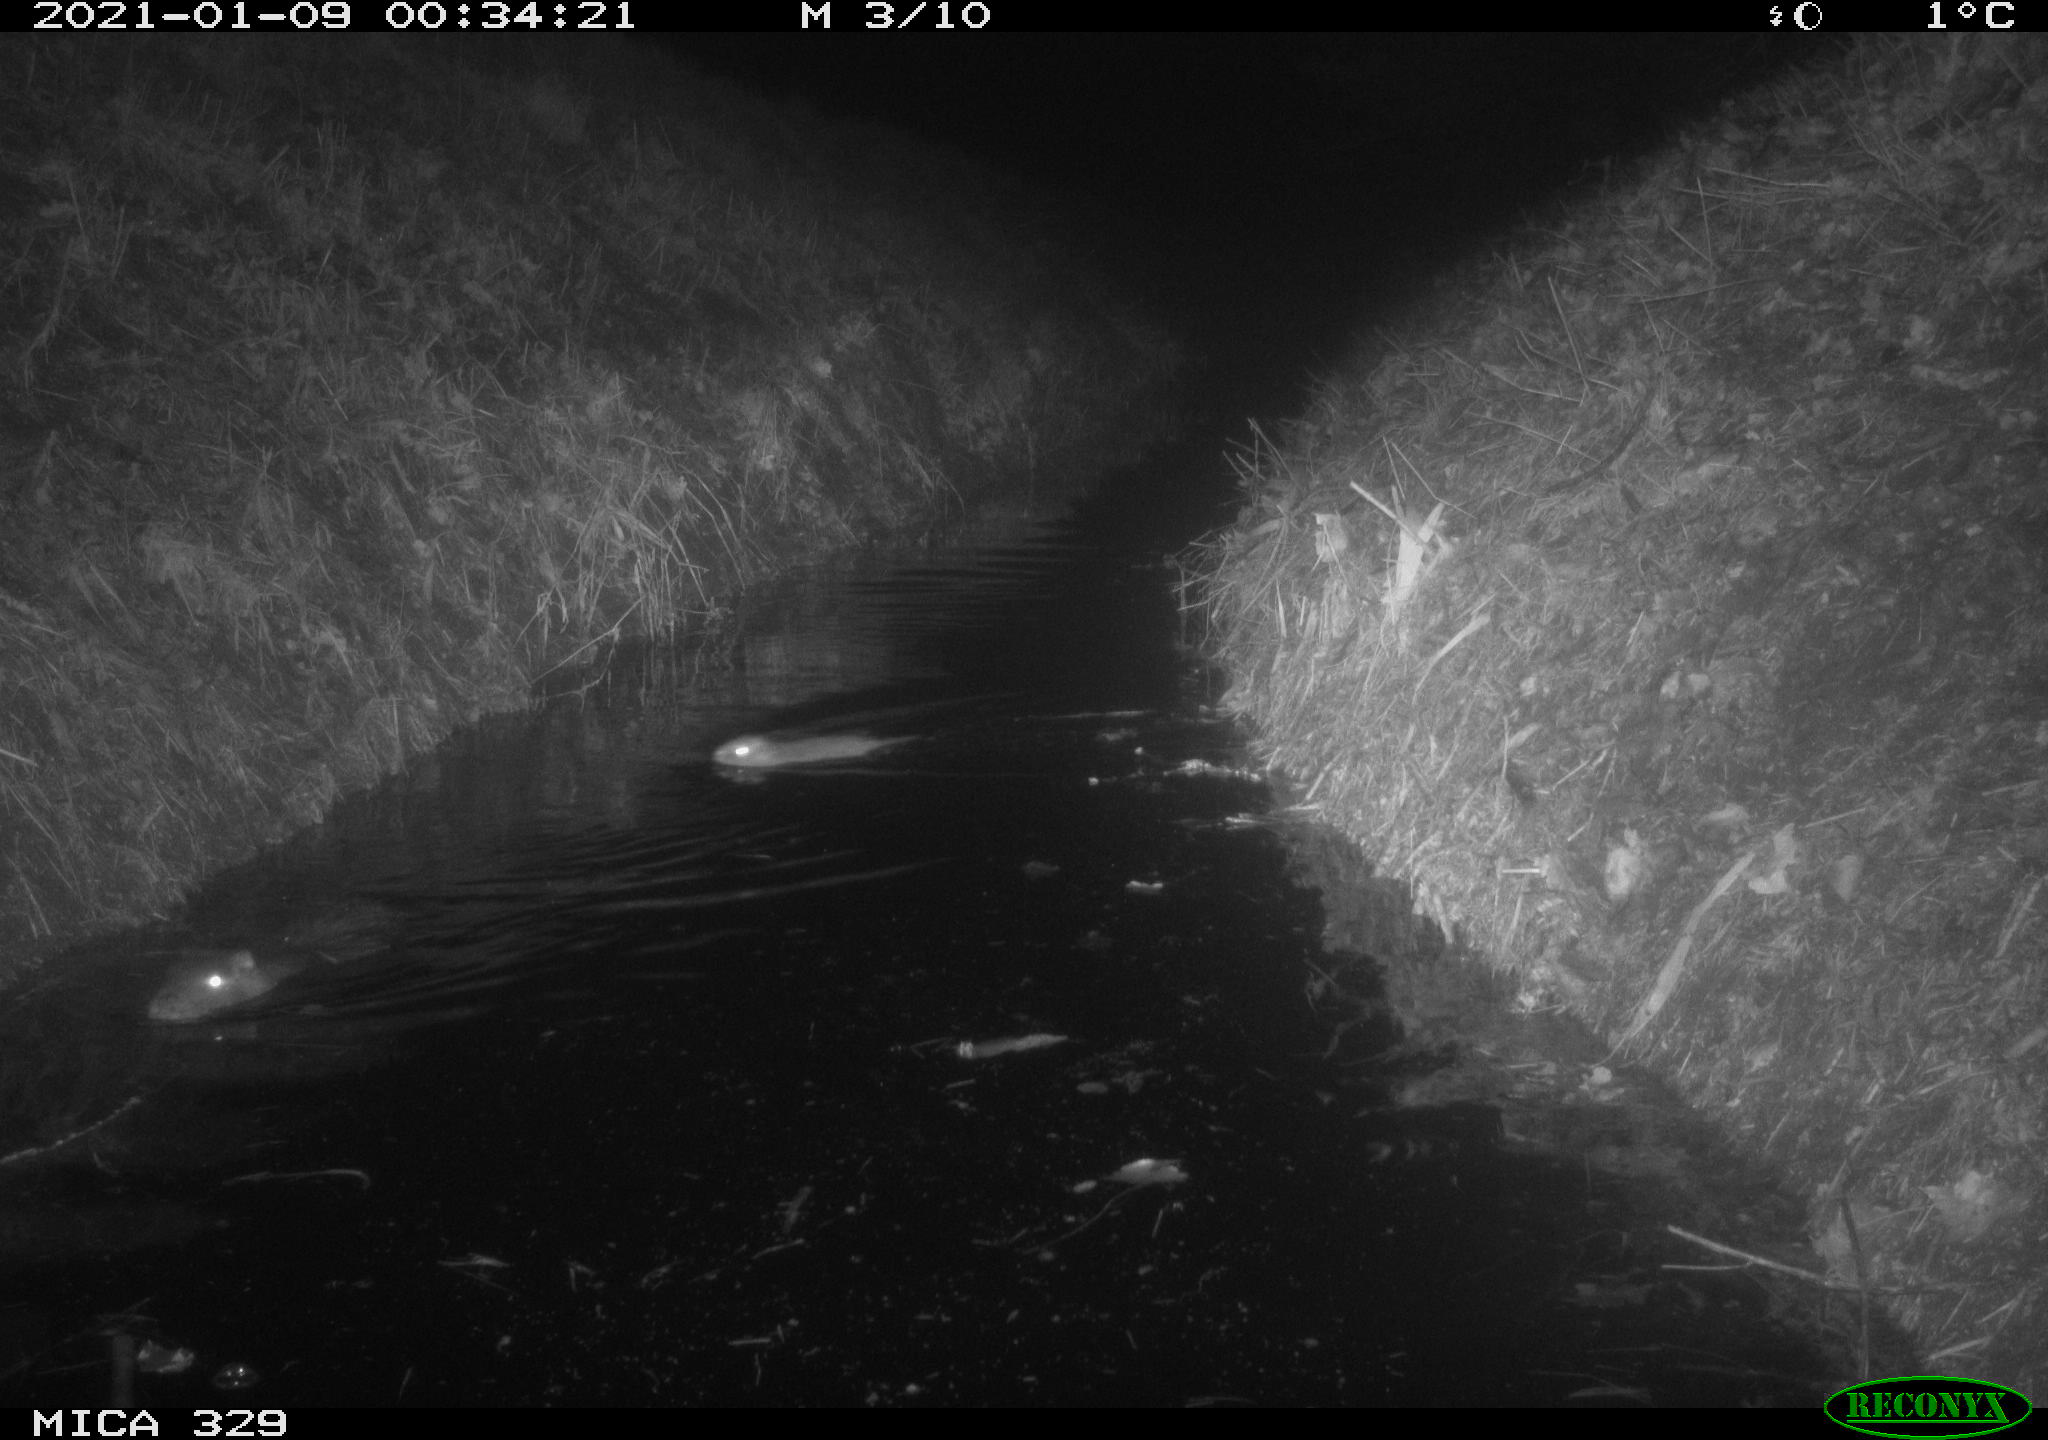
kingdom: Animalia
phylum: Chordata
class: Mammalia
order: Rodentia
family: Myocastoridae
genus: Myocastor
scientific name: Myocastor coypus
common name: Coypu
